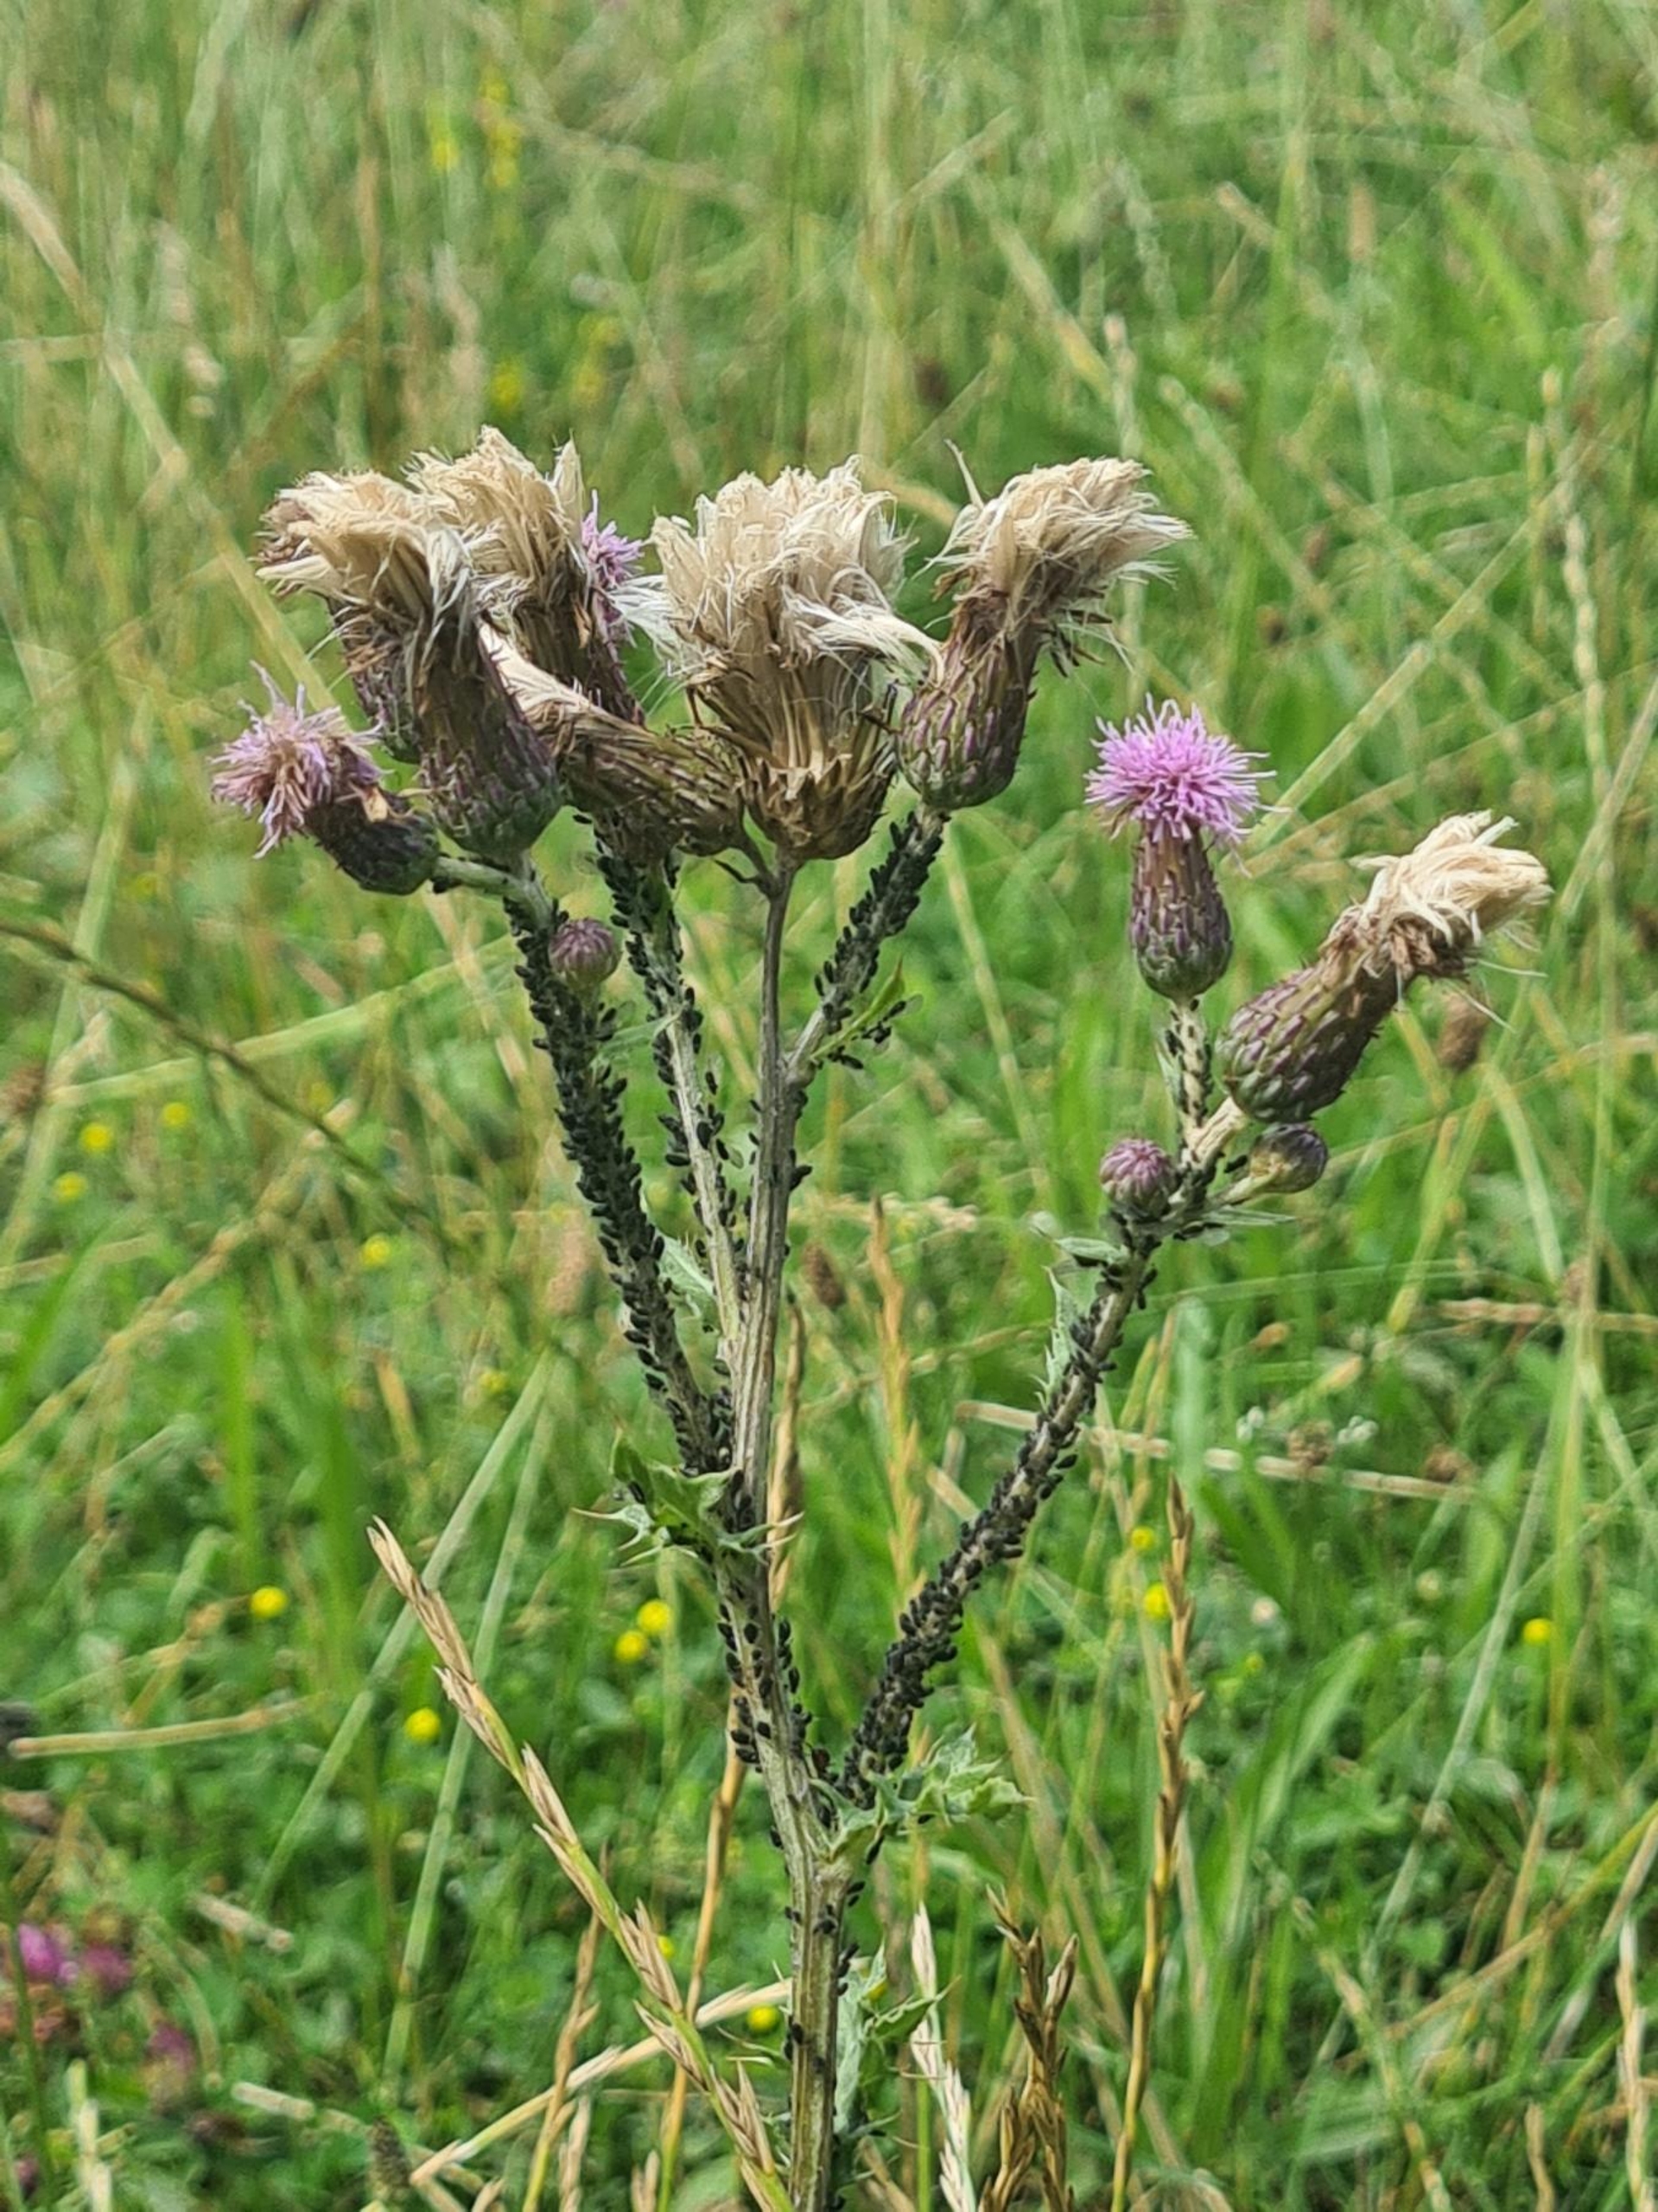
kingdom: Plantae
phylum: Tracheophyta
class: Magnoliopsida
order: Asterales
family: Asteraceae
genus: Cirsium
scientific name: Cirsium arvense
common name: Ager-tidsel
